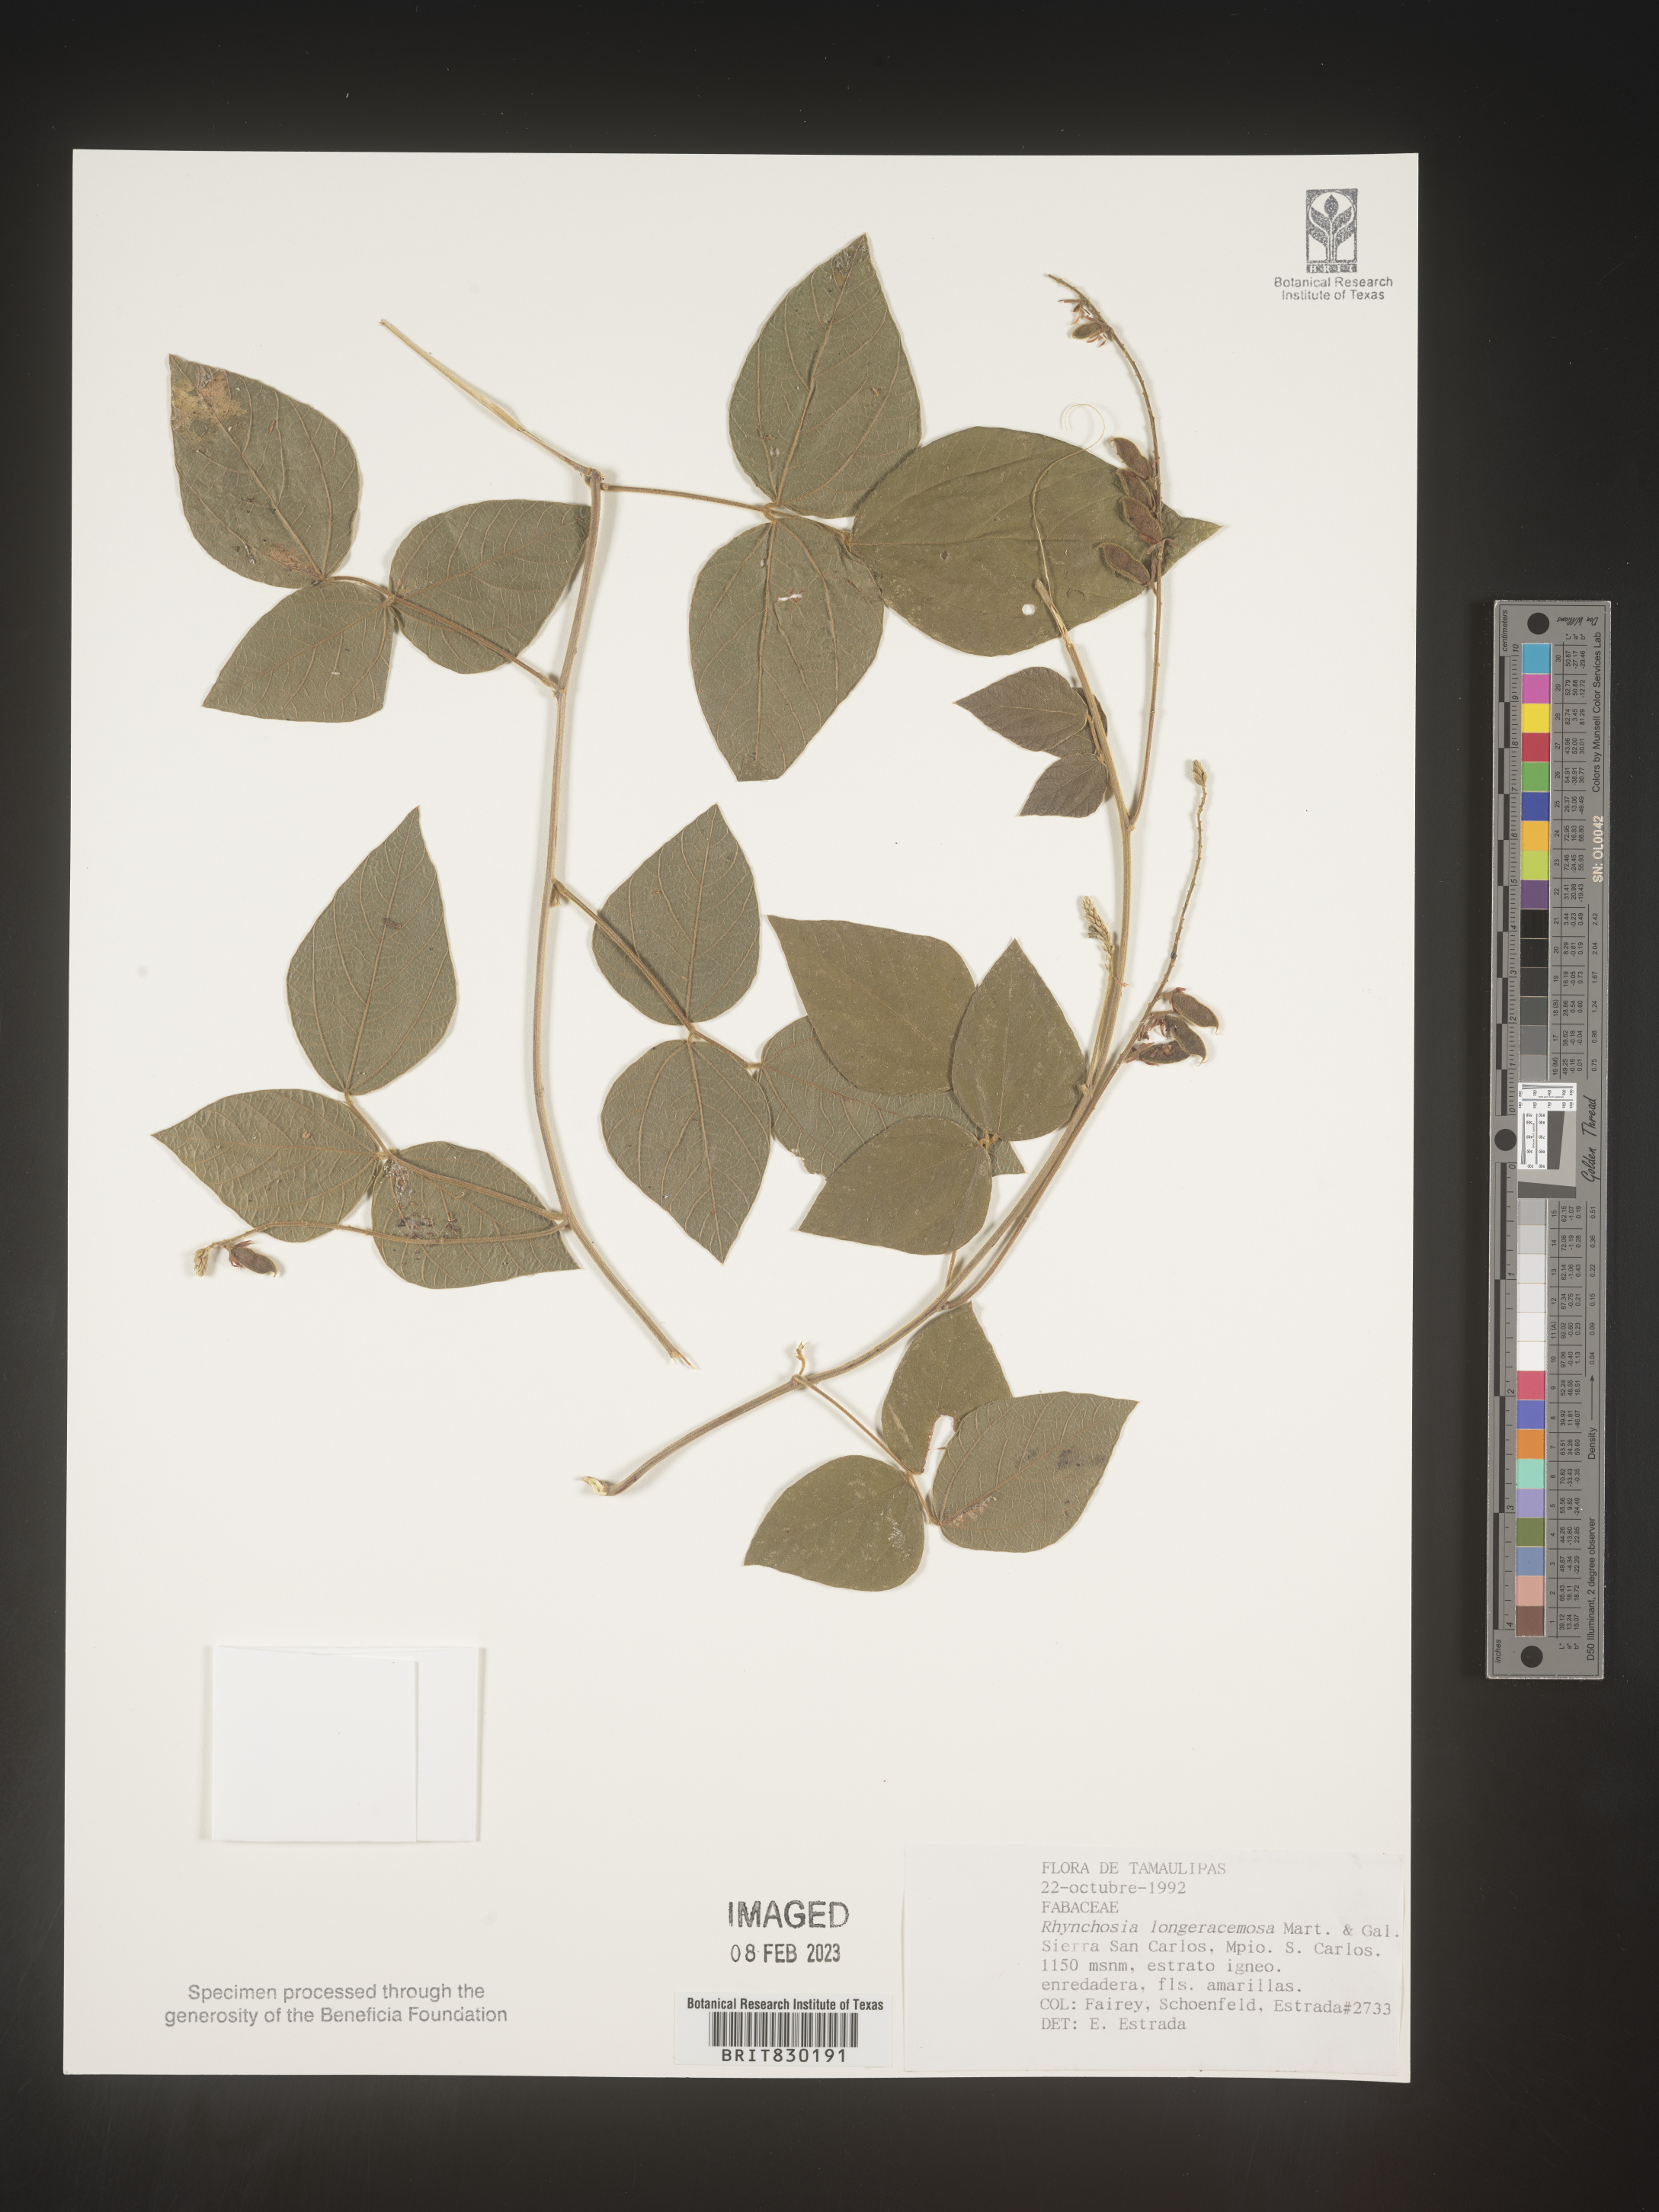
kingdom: Plantae
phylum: Tracheophyta
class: Magnoliopsida
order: Fabales
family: Fabaceae
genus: Rhynchosia
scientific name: Rhynchosia
